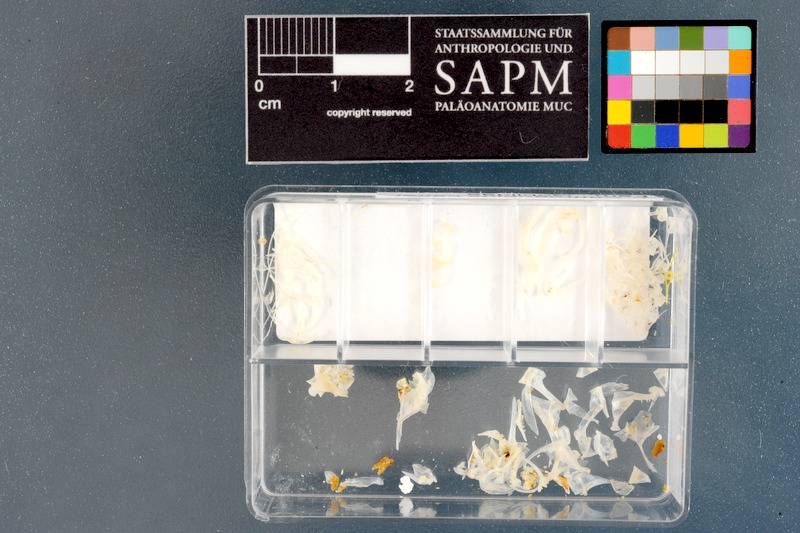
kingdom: Animalia
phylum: Chordata
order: Perciformes
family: Gobiidae
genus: Caffrogobius
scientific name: Caffrogobius caffer
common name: Banded goby
